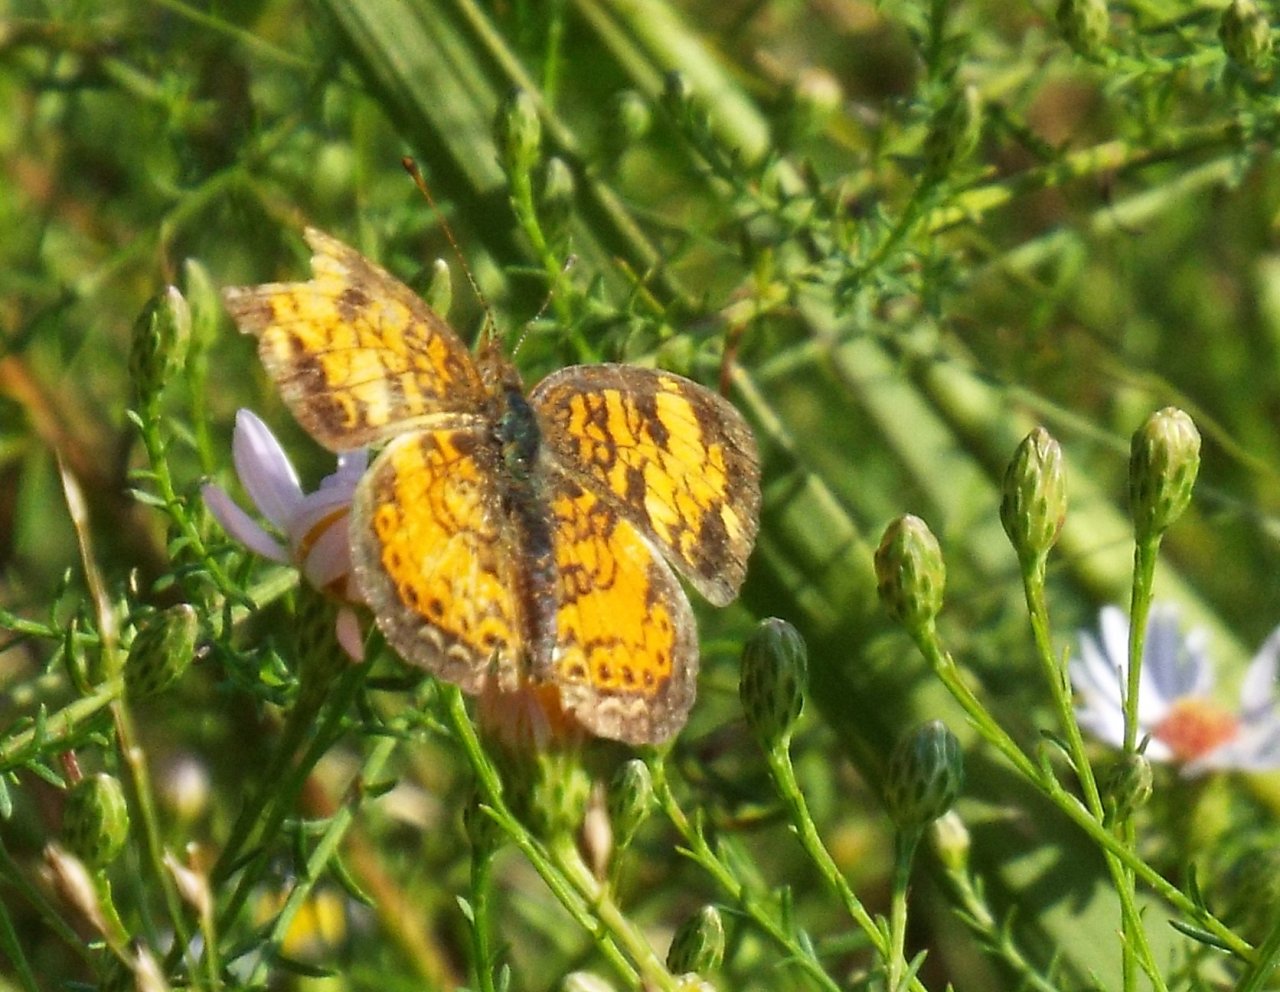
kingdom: Animalia
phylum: Arthropoda
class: Insecta
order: Lepidoptera
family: Nymphalidae
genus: Phyciodes
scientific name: Phyciodes tharos
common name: Pearl Crescent
